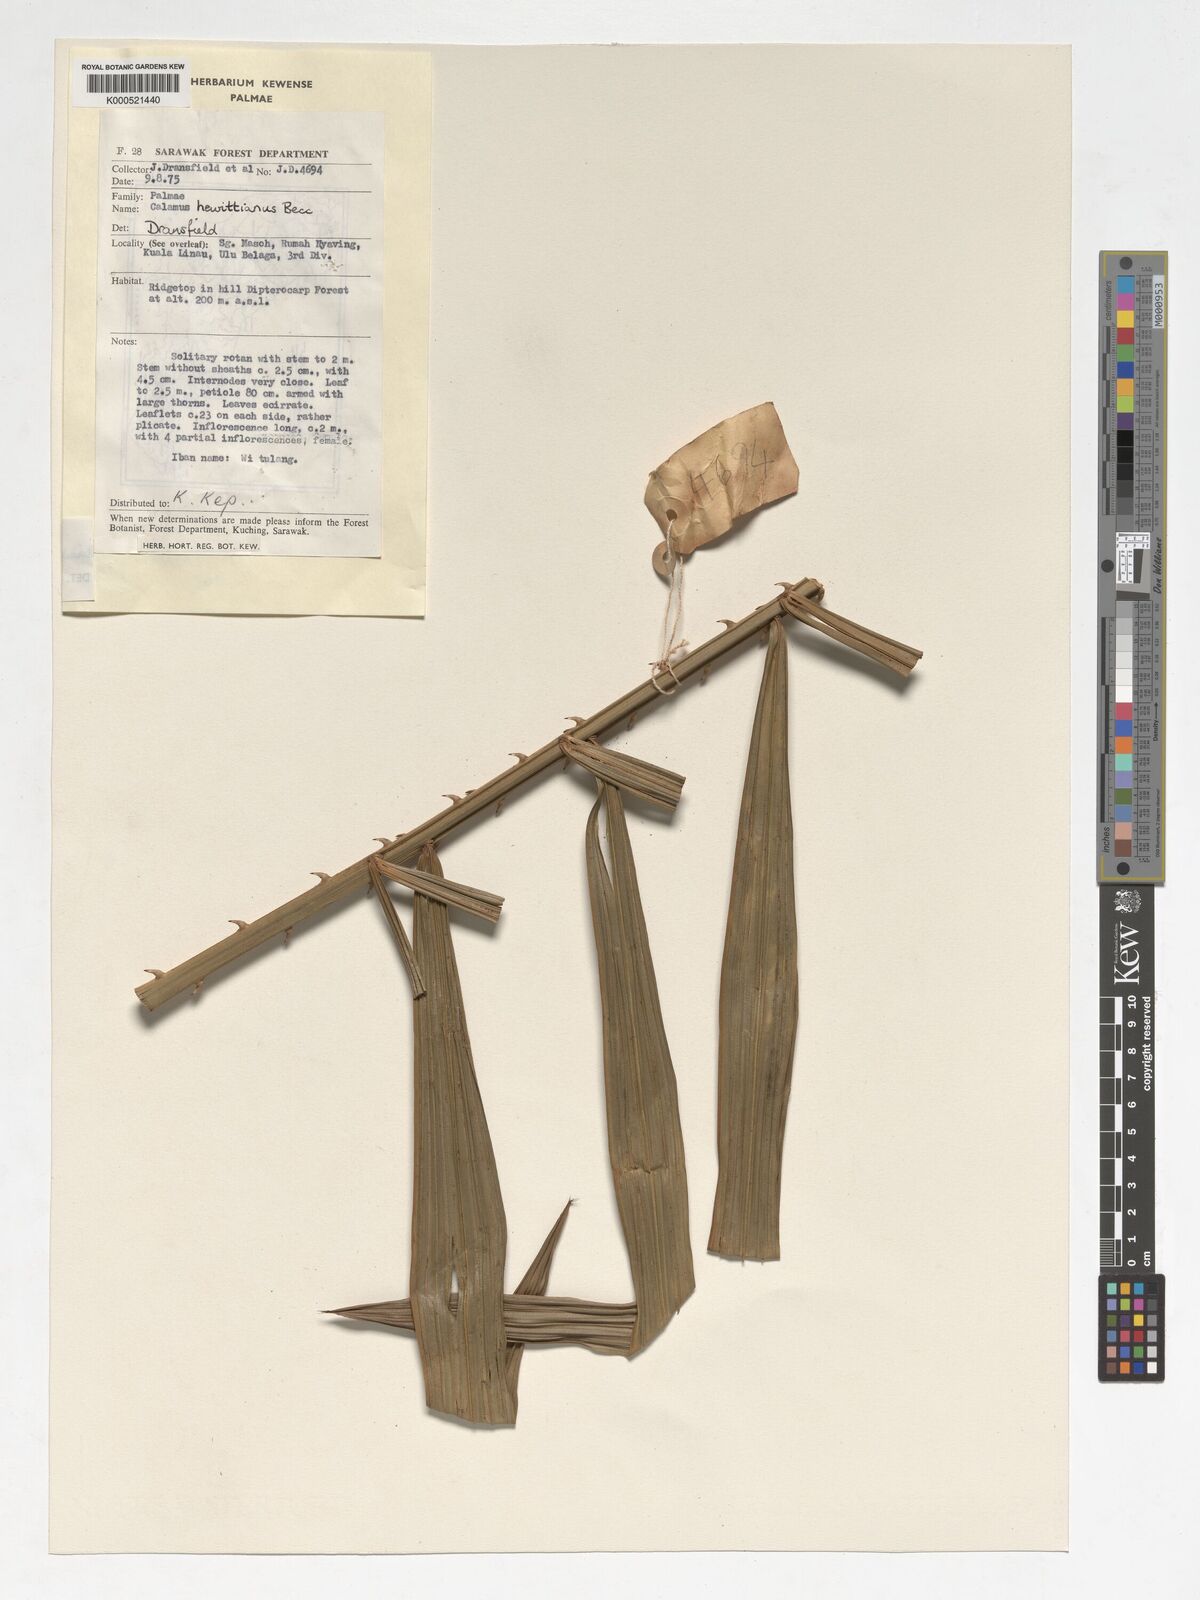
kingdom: Plantae
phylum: Tracheophyta
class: Liliopsida
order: Arecales
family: Arecaceae
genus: Calamus
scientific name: Calamus myriacanthus
